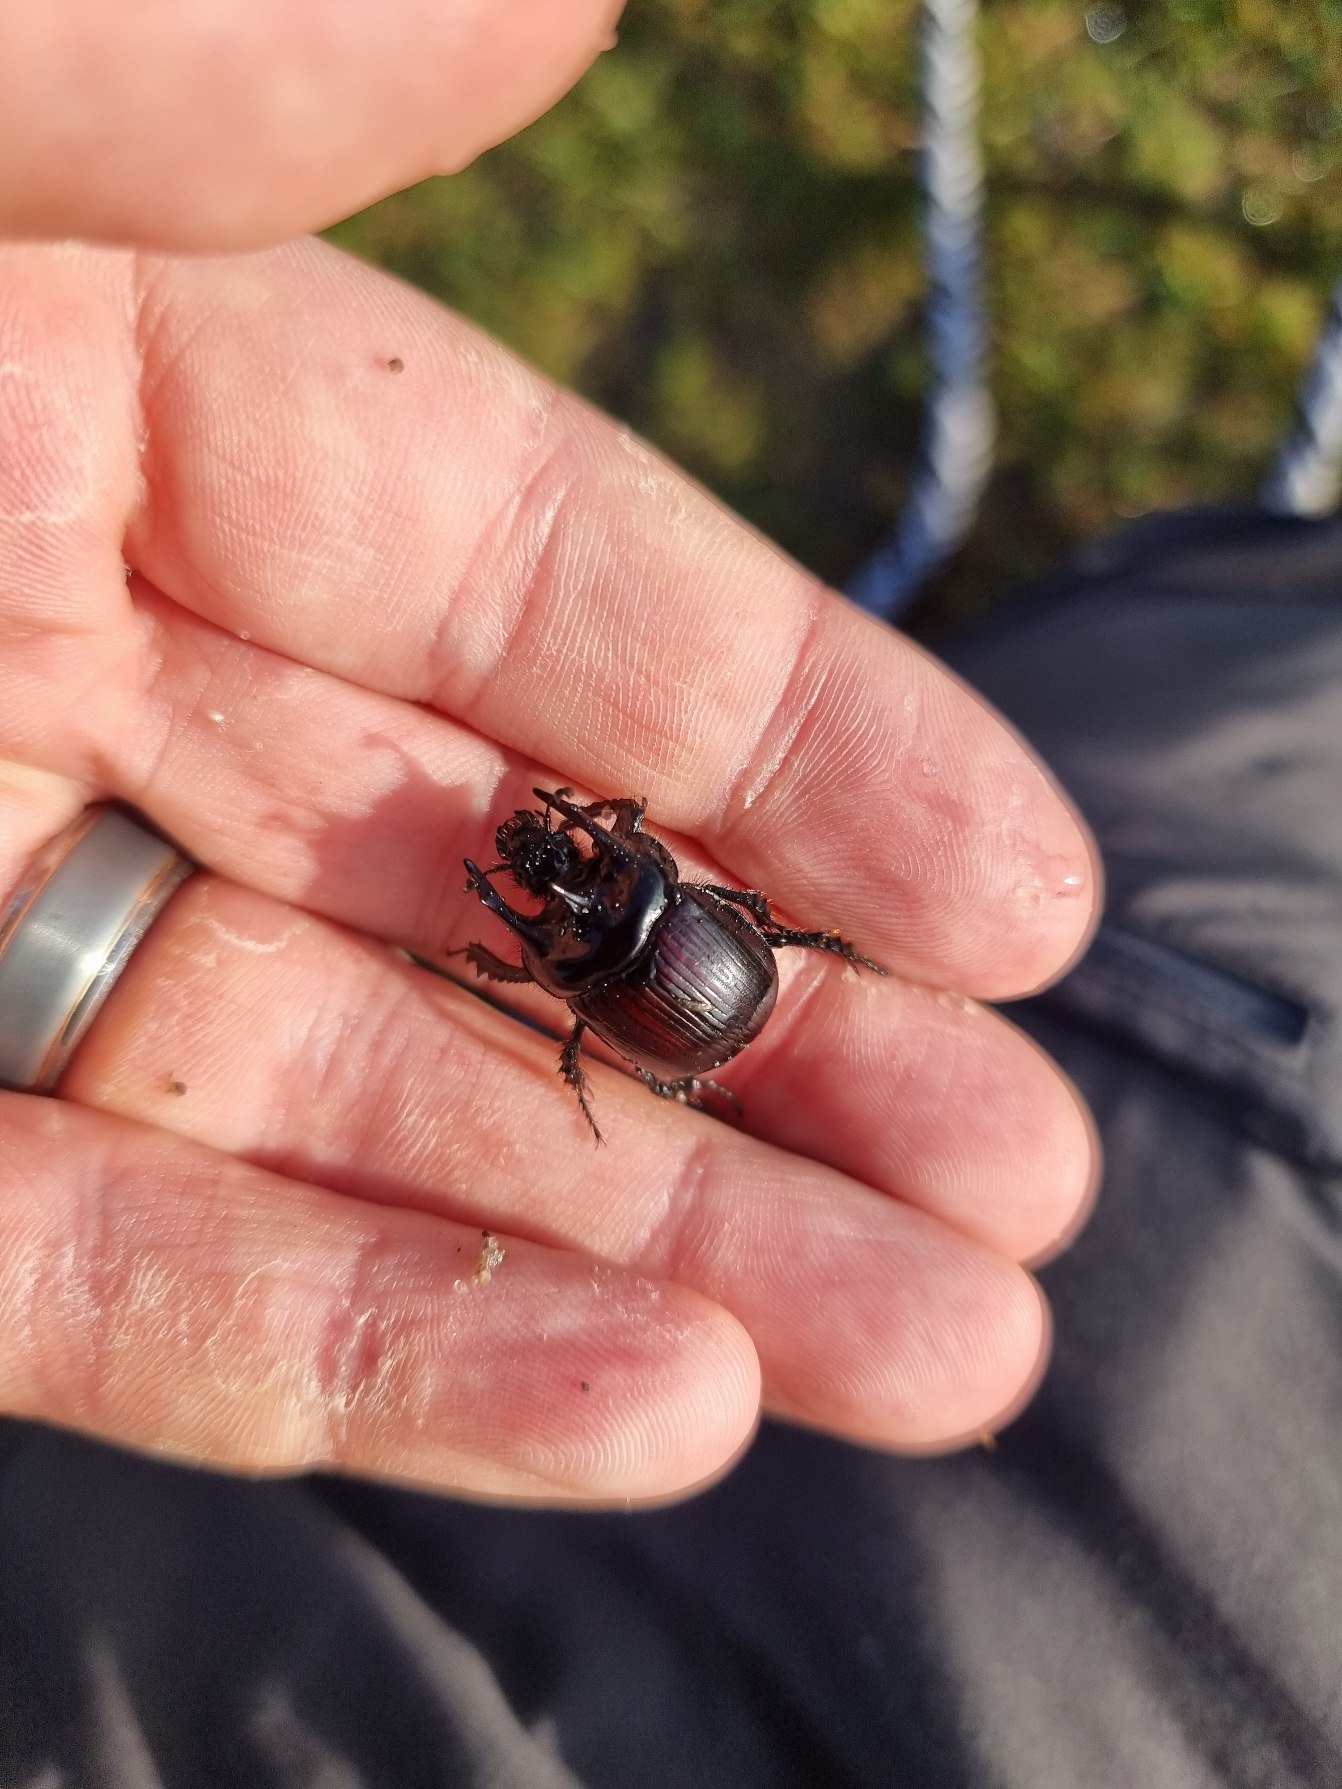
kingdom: Animalia
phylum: Arthropoda
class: Insecta
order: Coleoptera
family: Geotrupidae
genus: Typhaeus
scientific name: Typhaeus typhoeus
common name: Trehornet skarnbasse
